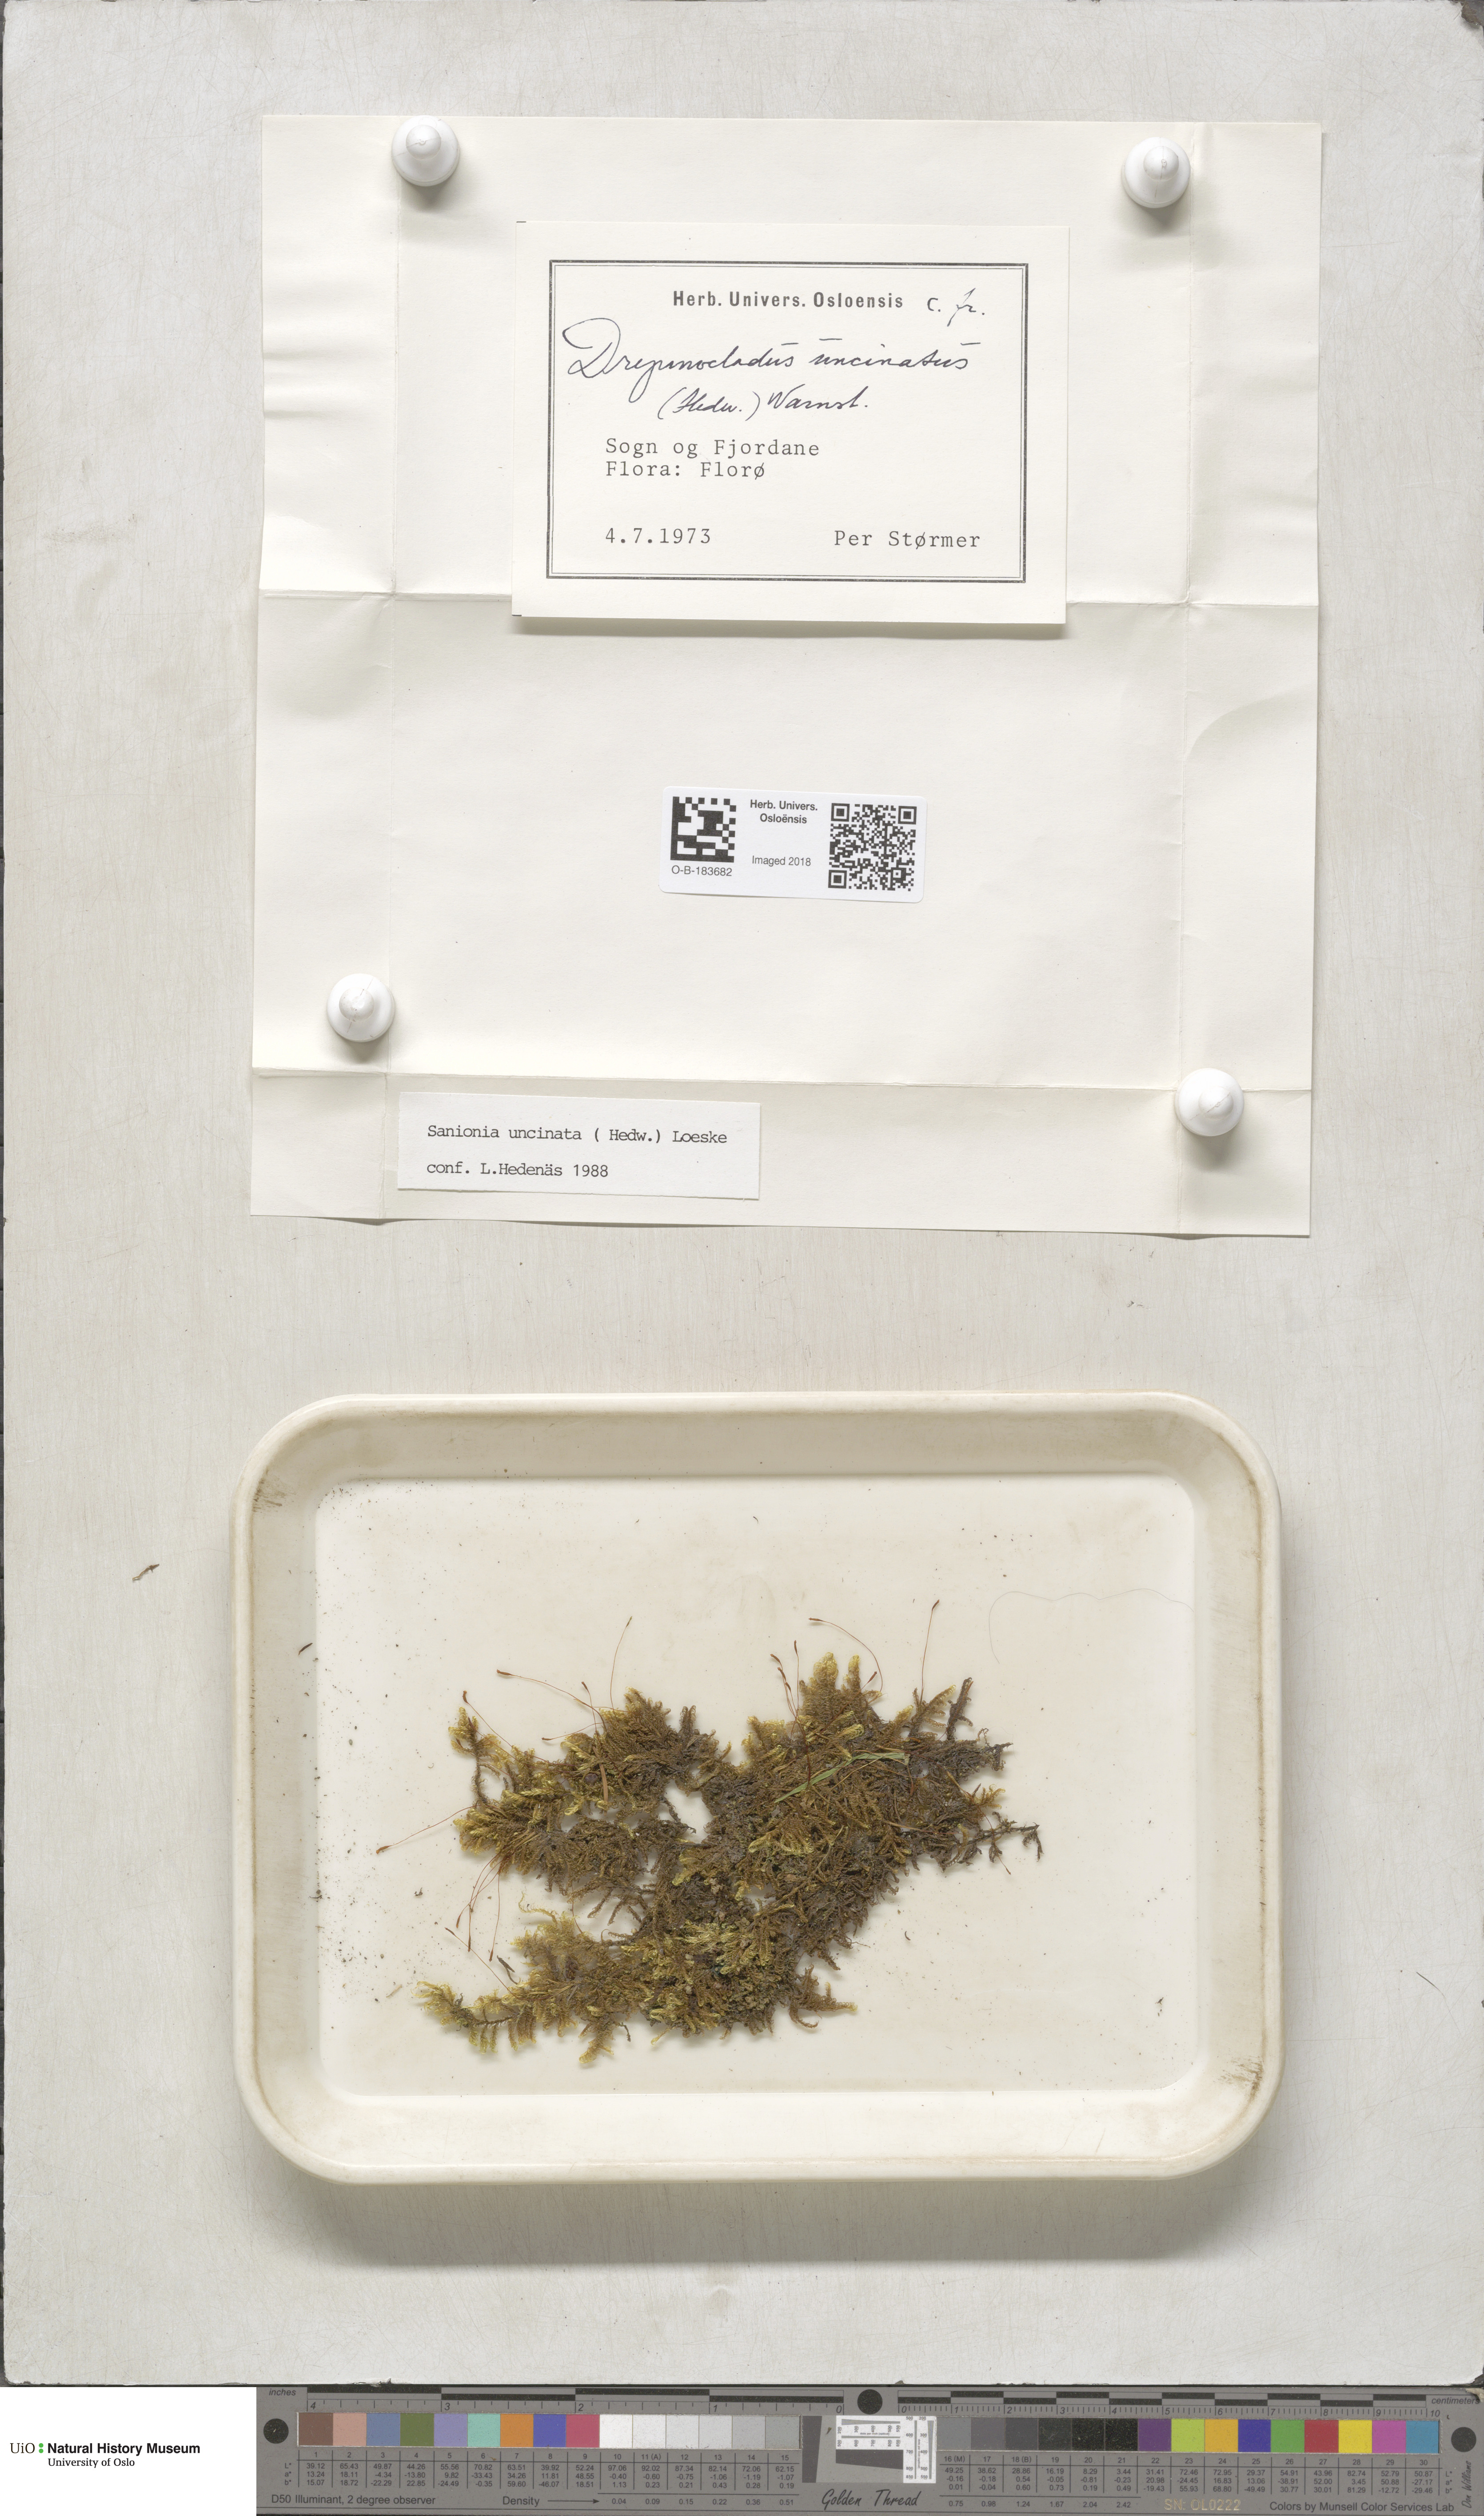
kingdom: Plantae
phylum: Bryophyta
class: Bryopsida
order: Hypnales
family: Scorpidiaceae
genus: Sanionia
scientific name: Sanionia uncinata
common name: Sickle moss
